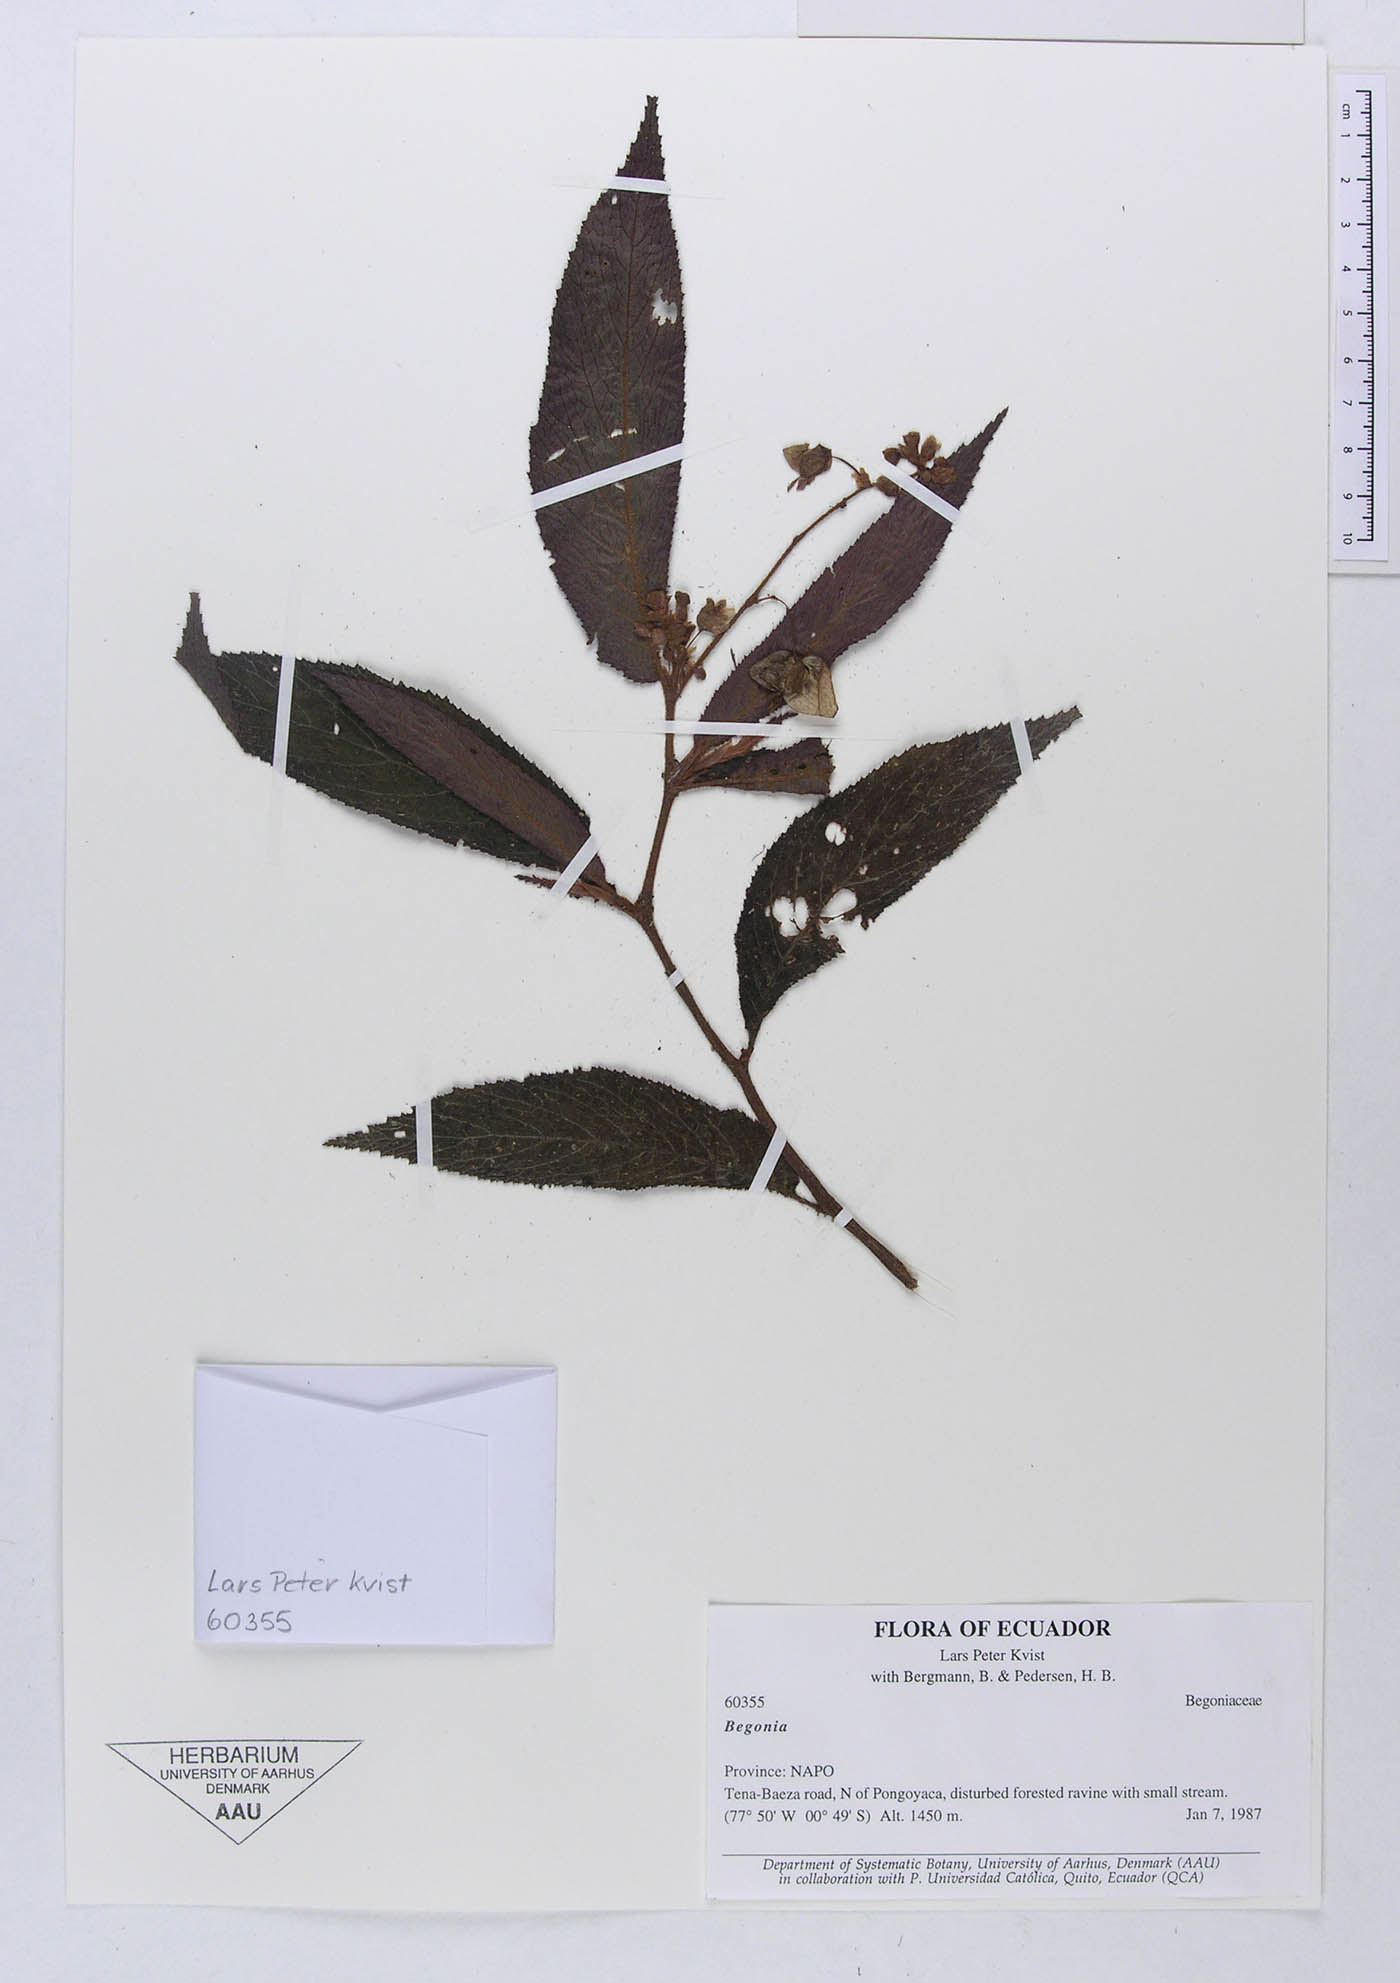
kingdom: Plantae
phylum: Tracheophyta
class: Magnoliopsida
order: Cucurbitales
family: Begoniaceae
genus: Begonia
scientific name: Begonia buddleiifolia
